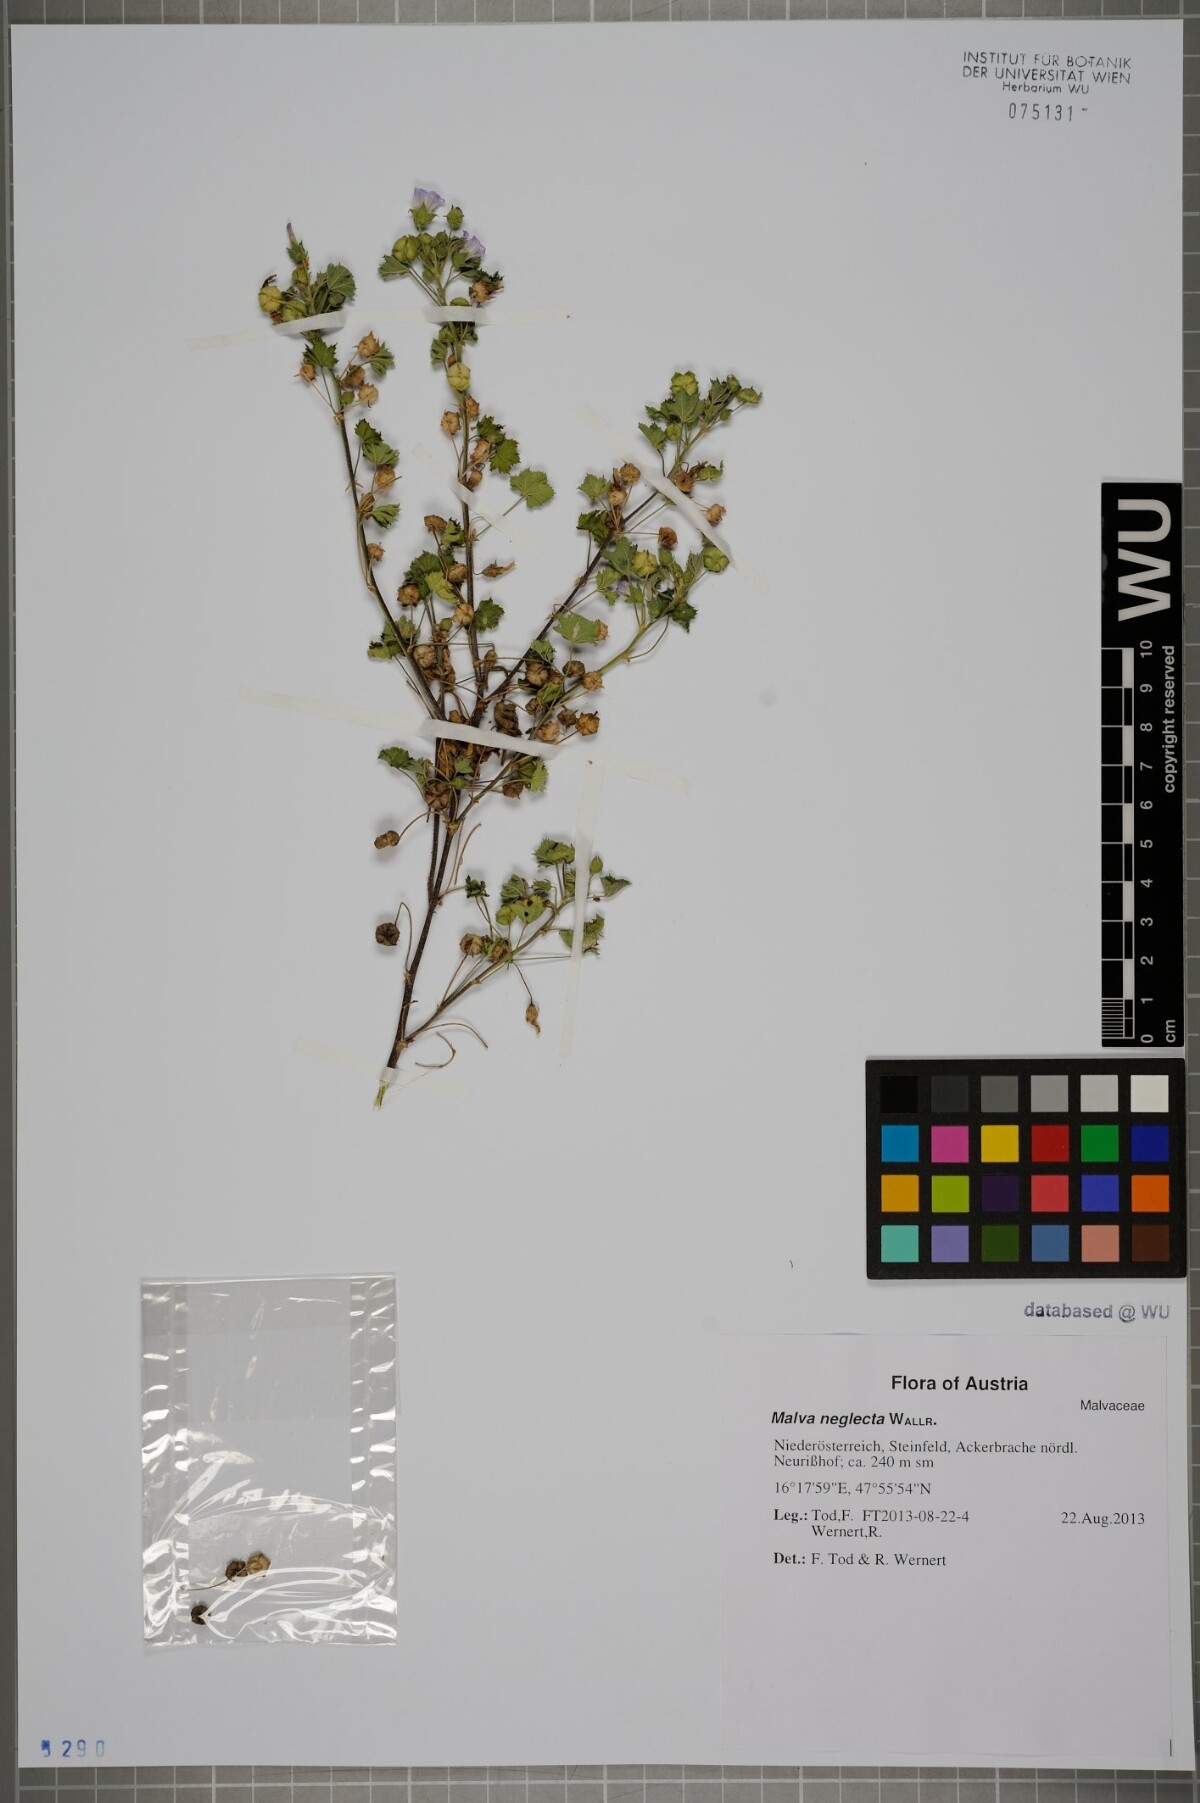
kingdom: Plantae
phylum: Tracheophyta
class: Magnoliopsida
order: Malvales
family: Malvaceae
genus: Malva
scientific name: Malva neglecta
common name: Common mallow
